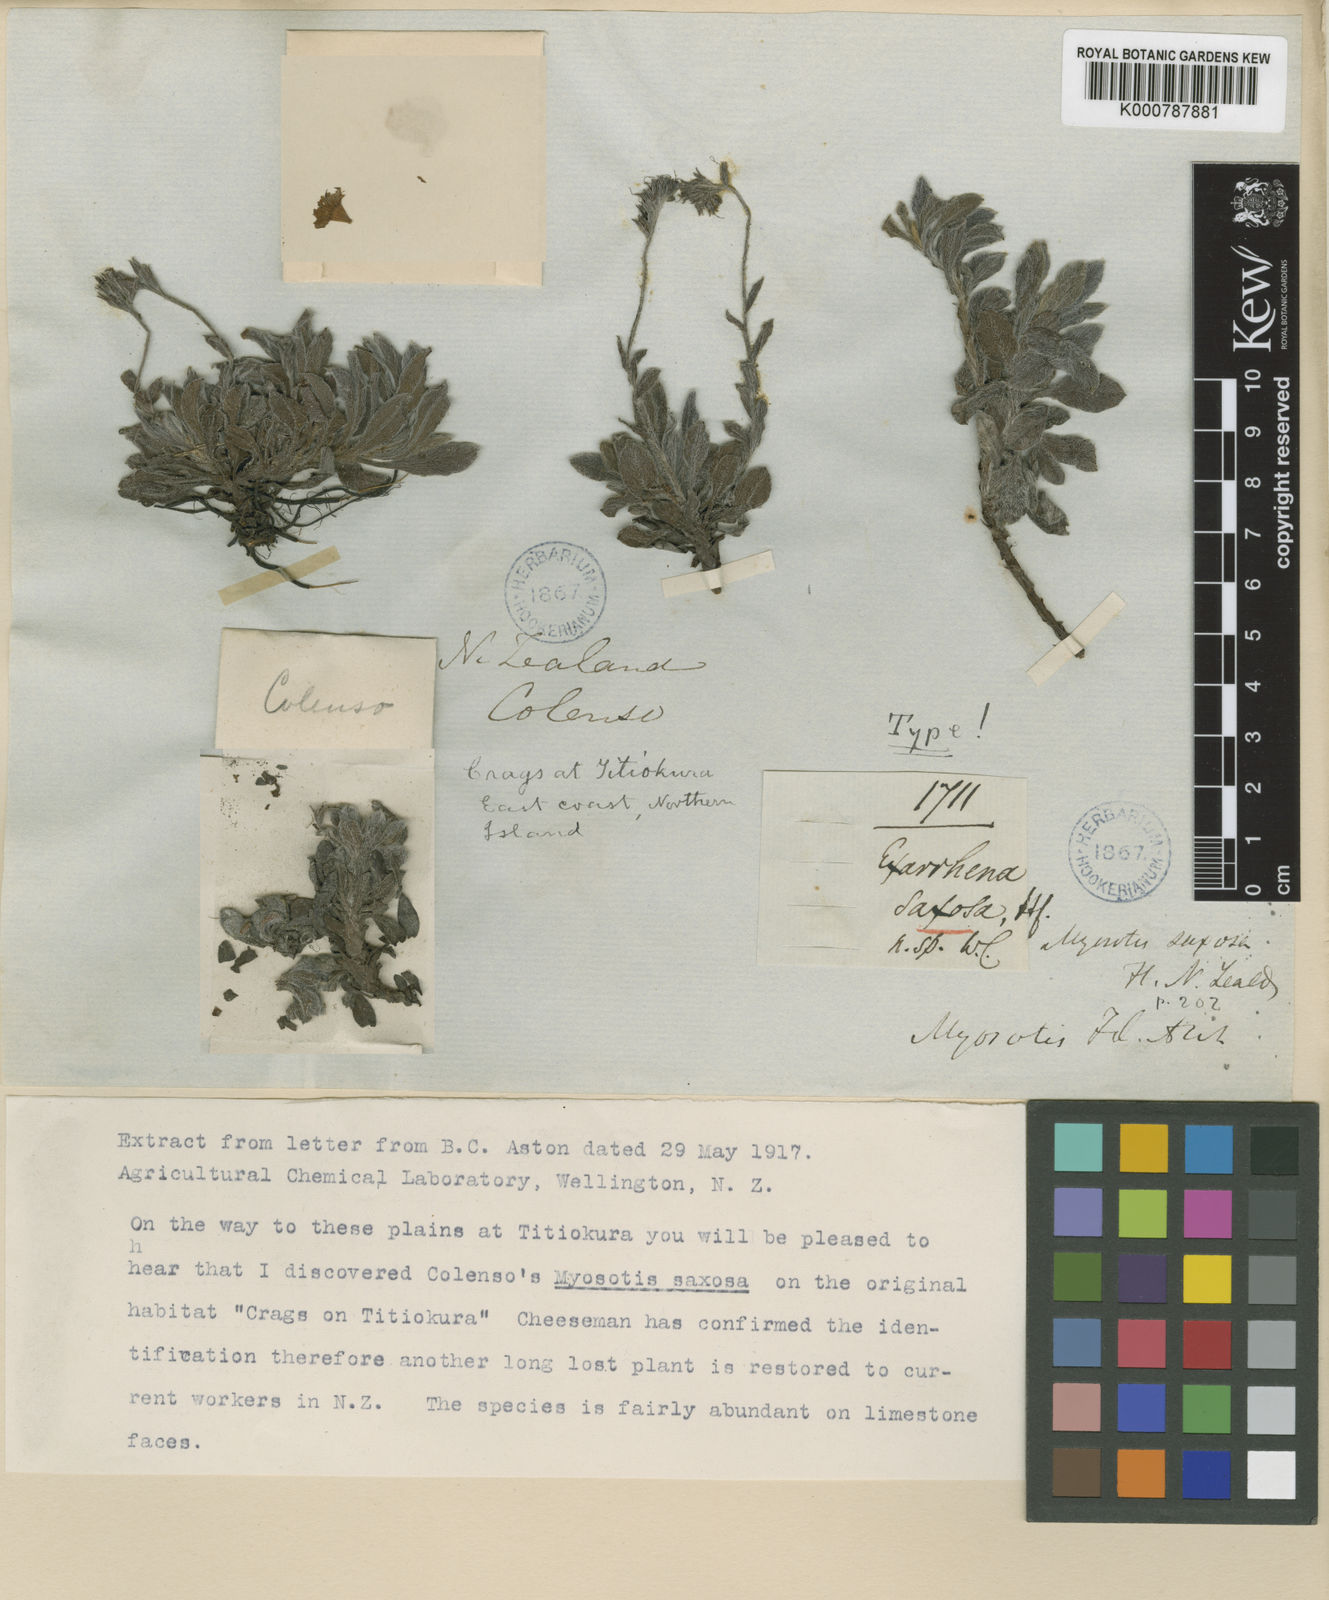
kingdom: Plantae
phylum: Tracheophyta
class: Magnoliopsida
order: Boraginales
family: Boraginaceae
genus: Myosotis
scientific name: Myosotis saxosa
